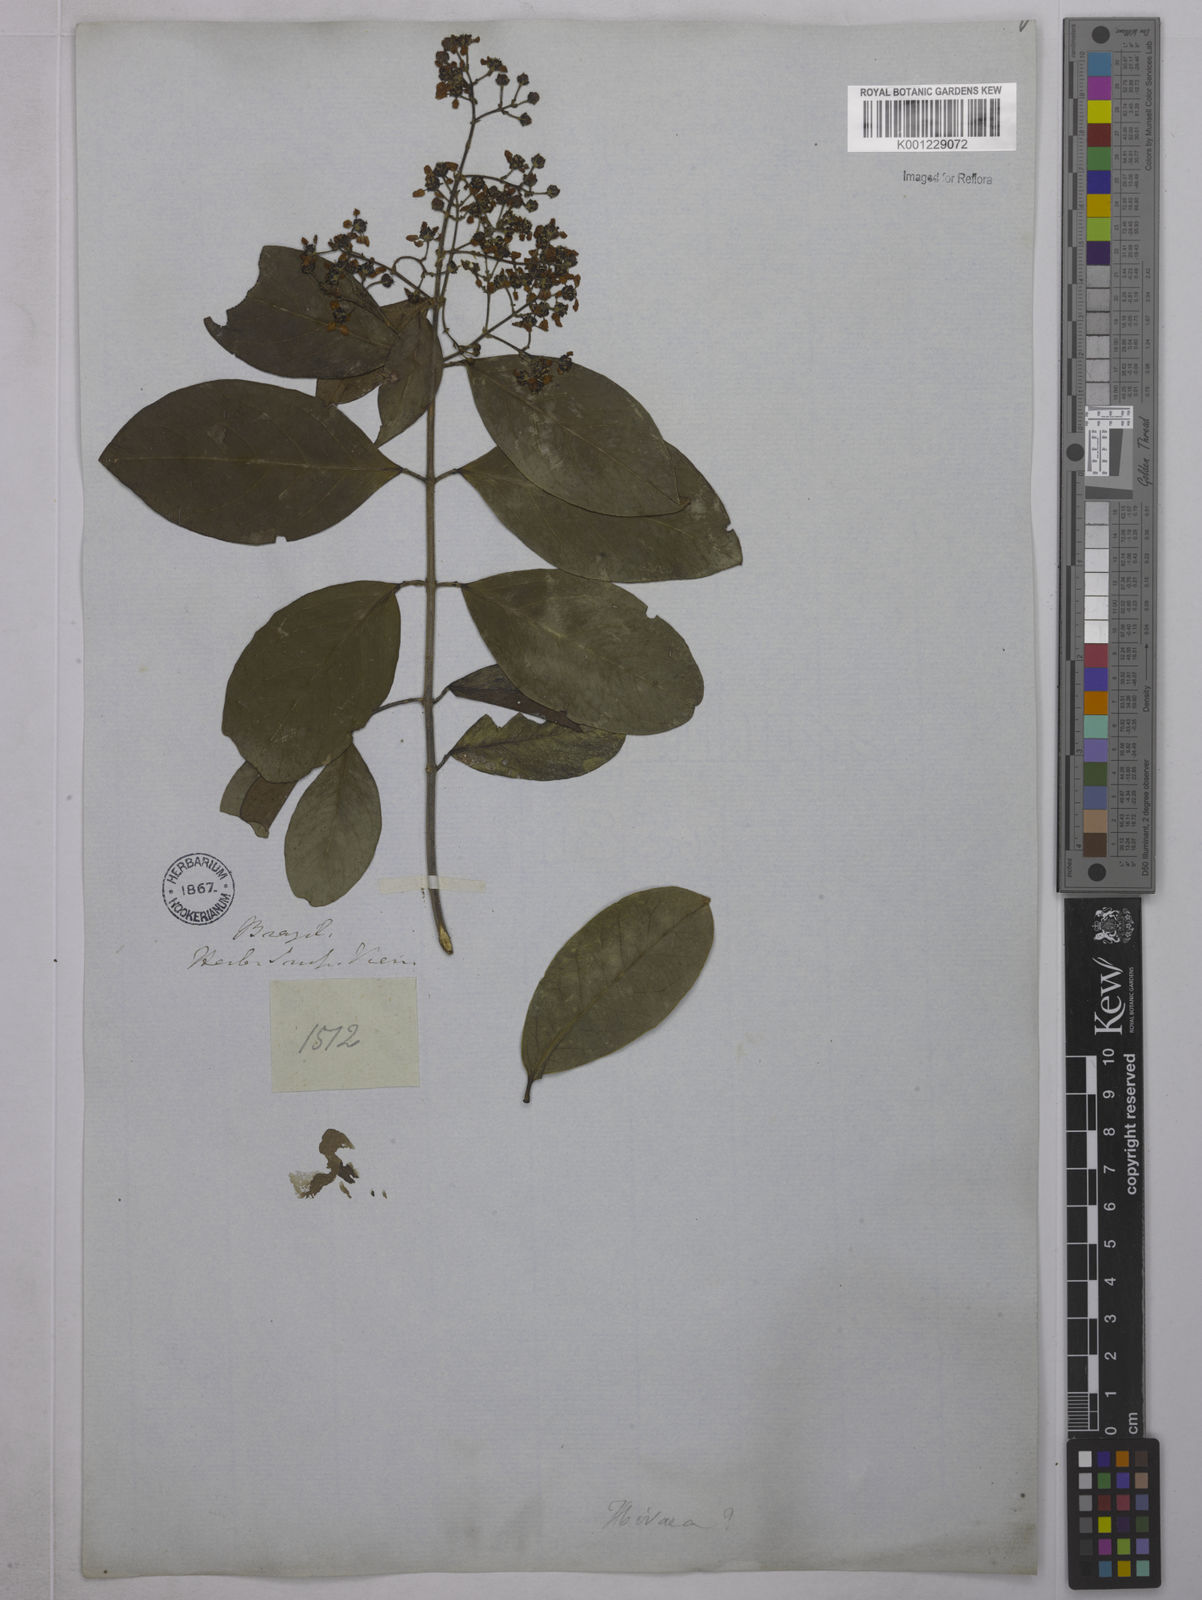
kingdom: Plantae
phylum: Tracheophyta
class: Magnoliopsida
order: Malpighiales
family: Malpighiaceae
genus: Niedenzuella
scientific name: Niedenzuella mogoriifolia
